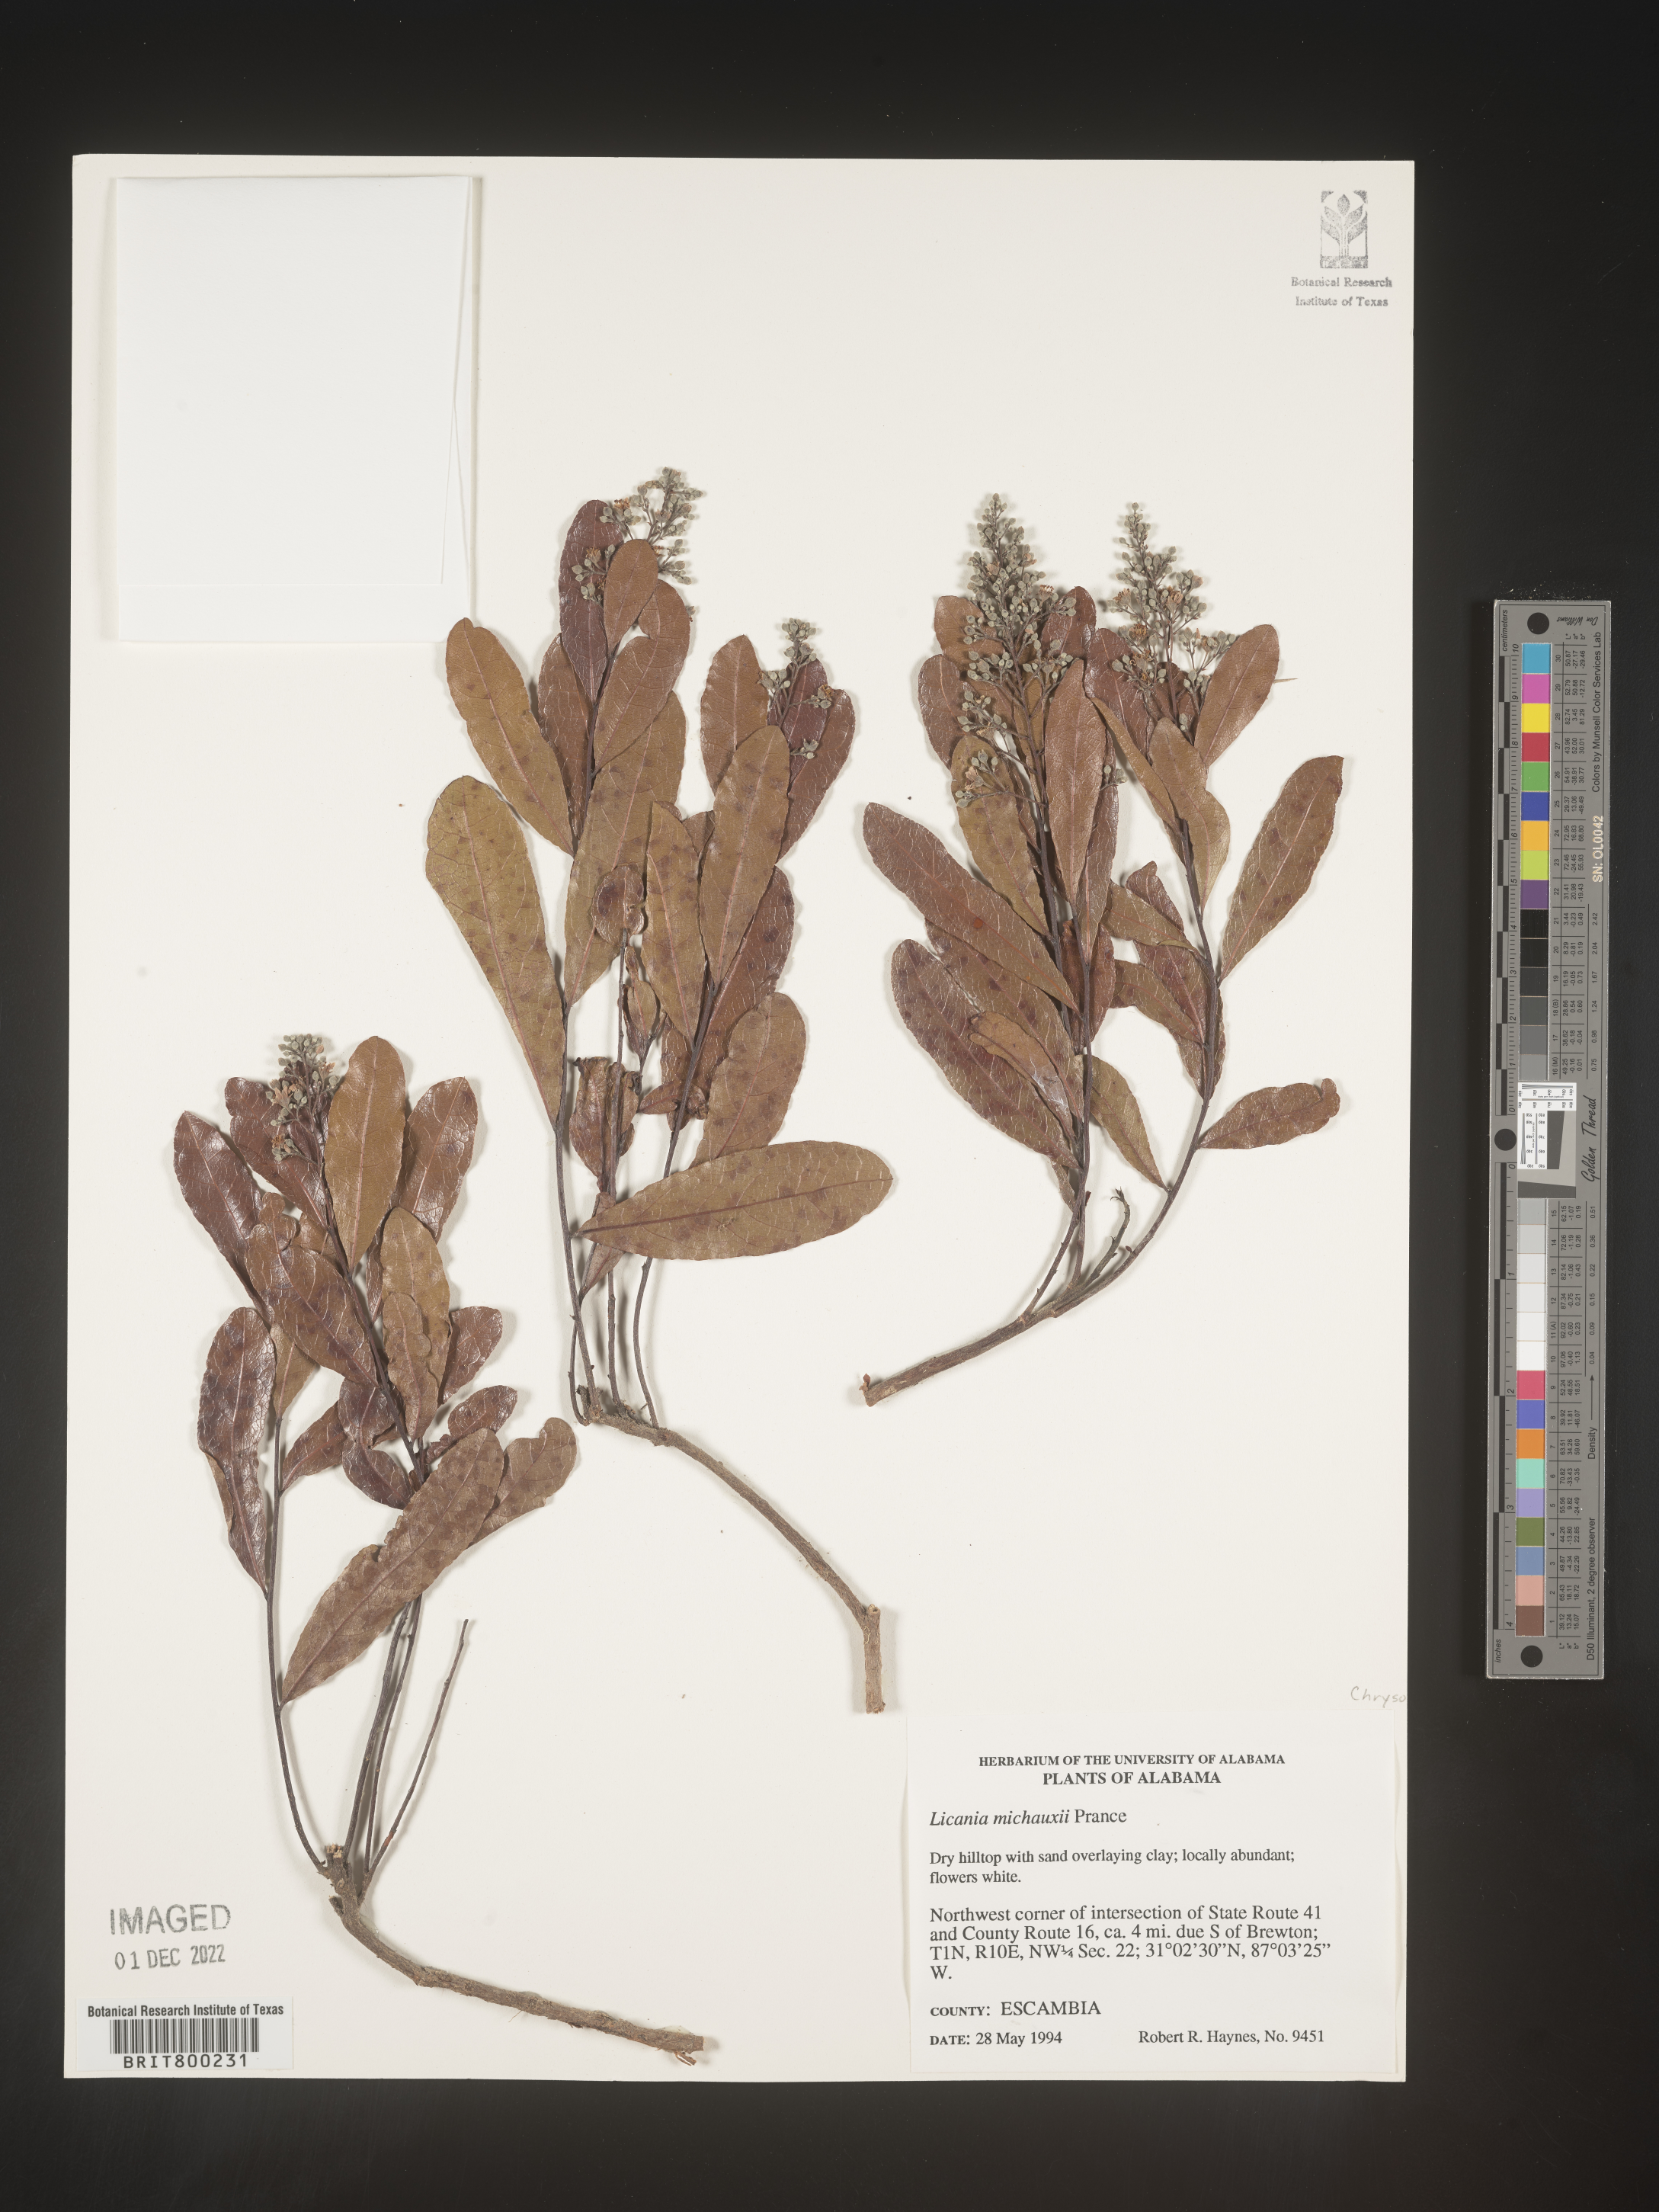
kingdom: Plantae
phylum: Tracheophyta
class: Magnoliopsida
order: Malpighiales
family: Chrysobalanaceae
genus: Geobalanus
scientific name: Geobalanus oblongifolius
